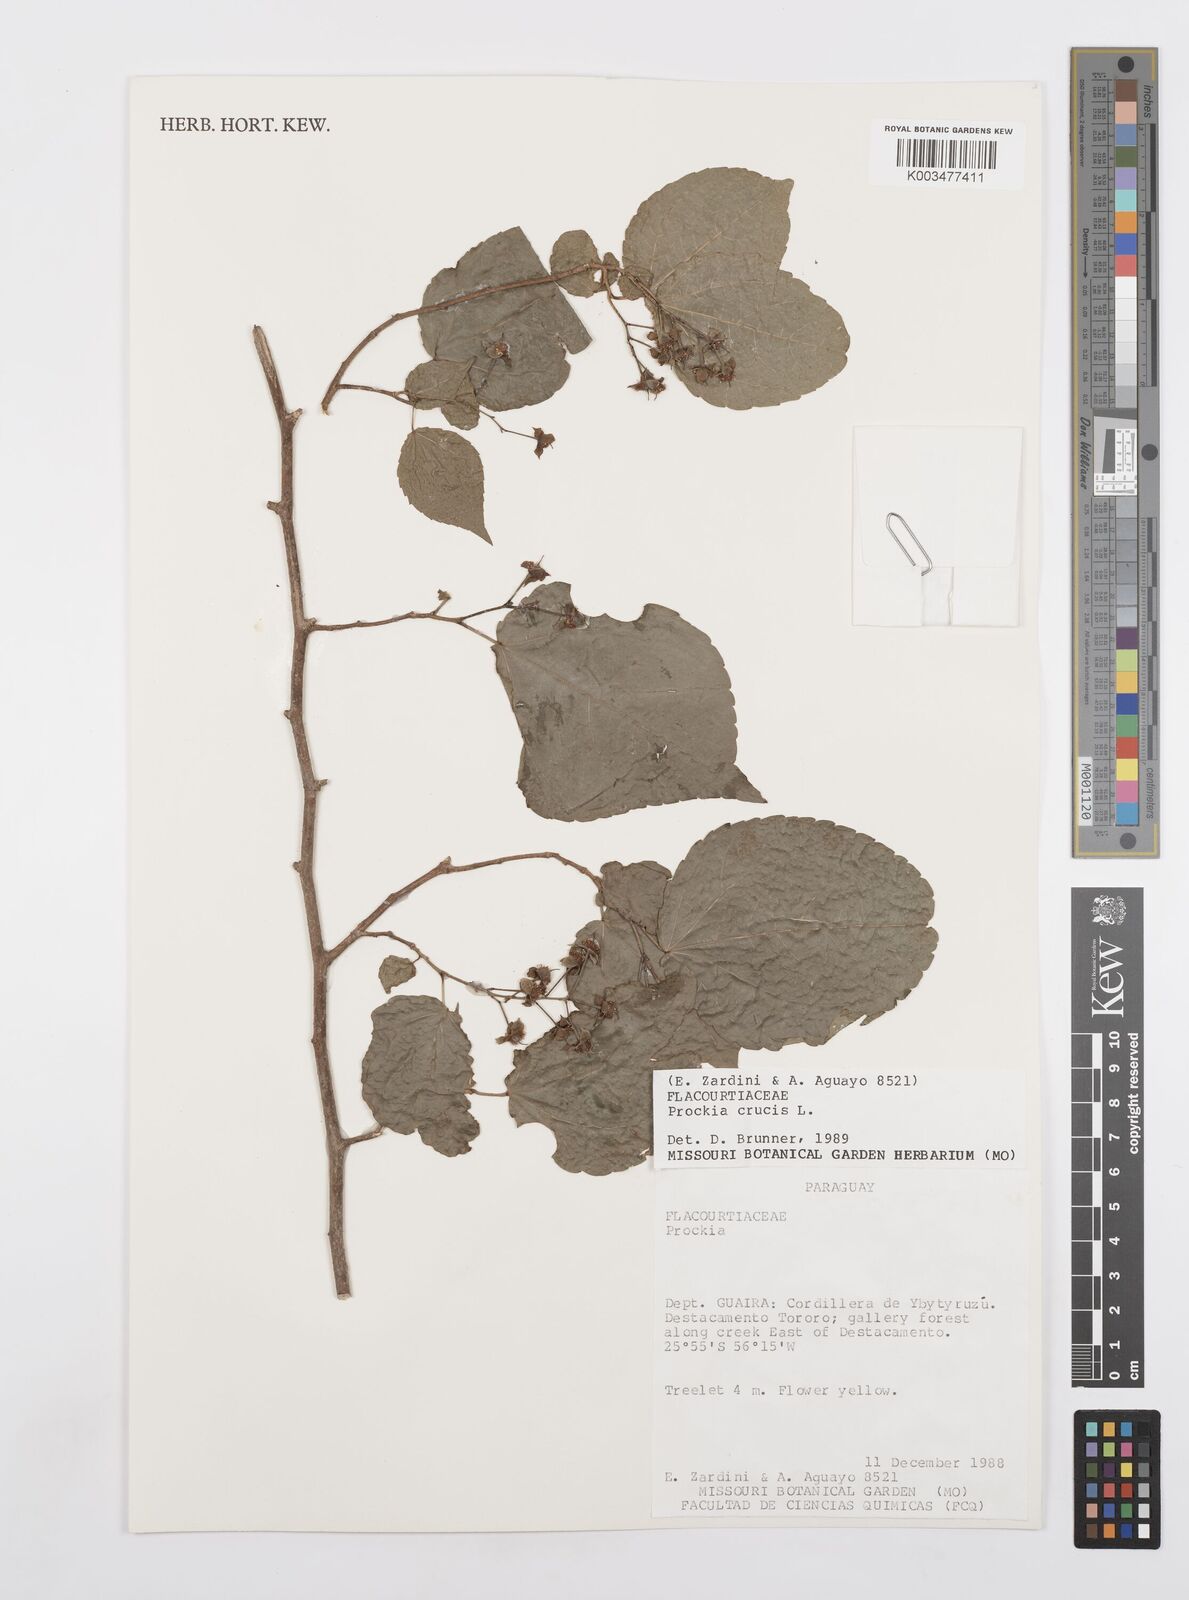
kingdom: Plantae
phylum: Tracheophyta
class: Magnoliopsida
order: Malpighiales
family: Salicaceae
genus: Prockia
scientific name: Prockia crucis
